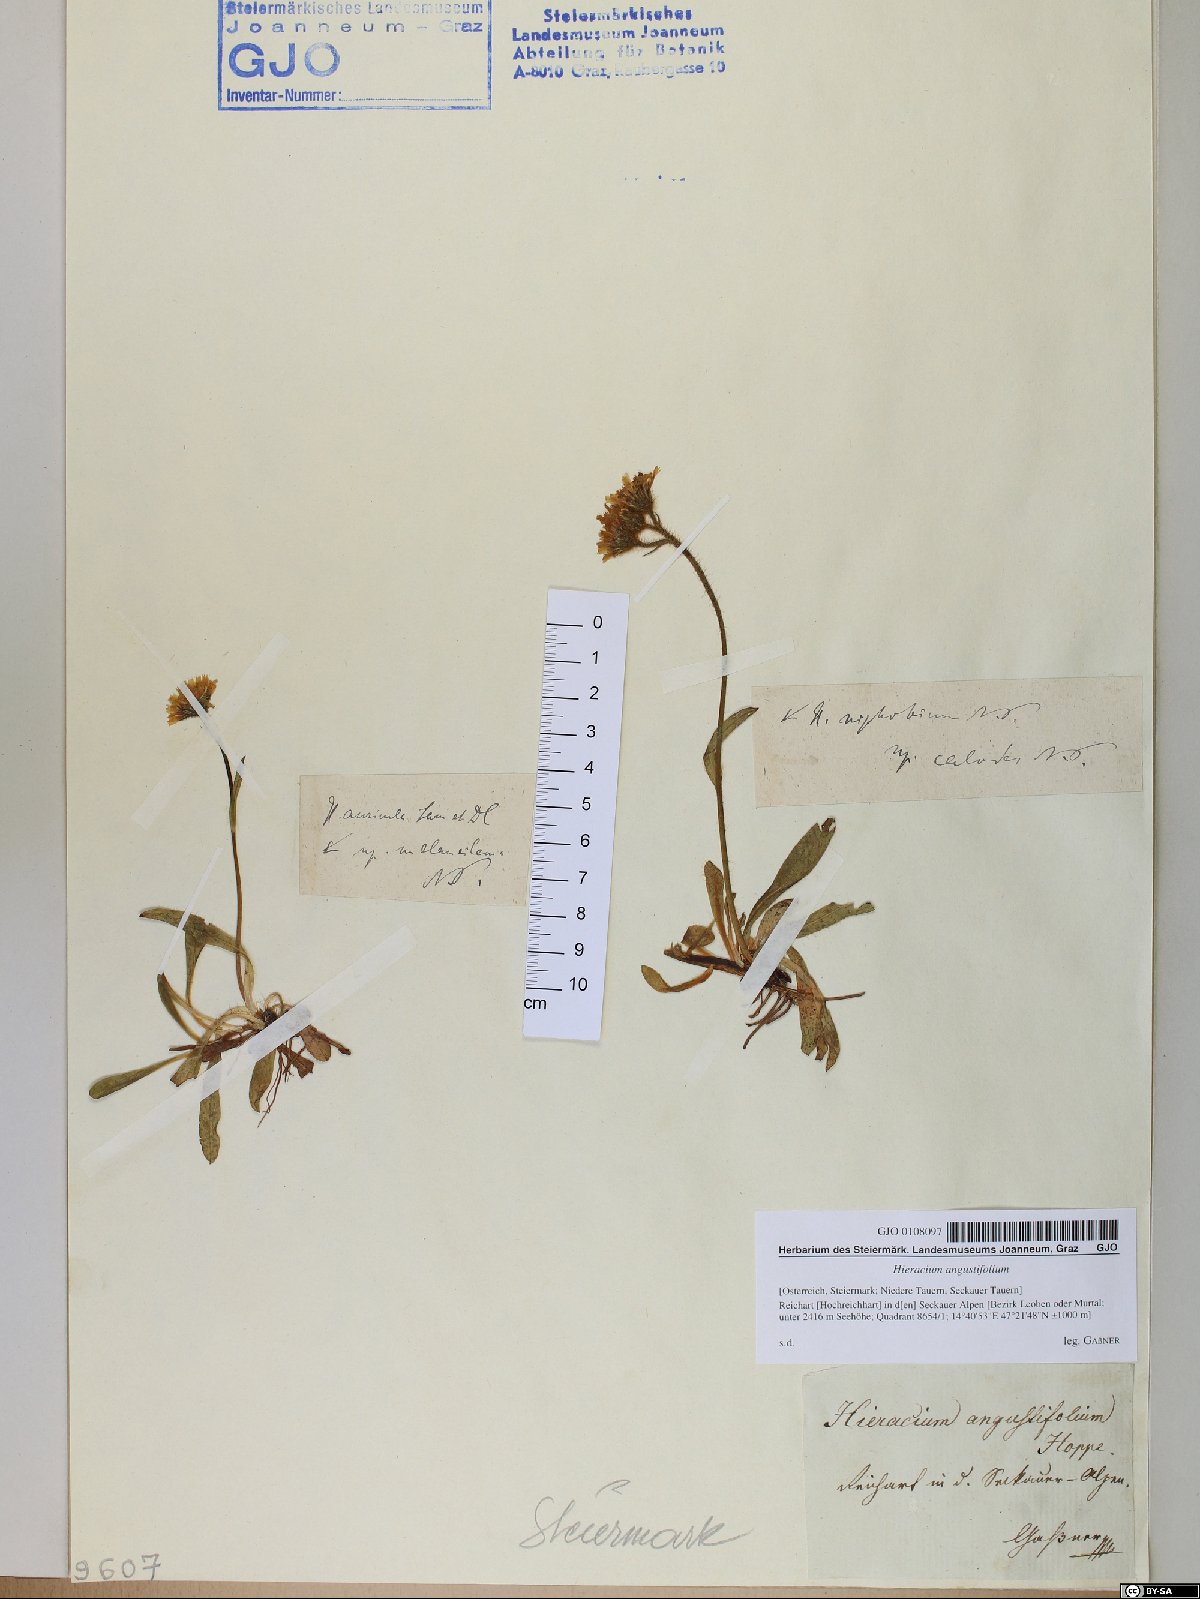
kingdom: Plantae
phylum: Tracheophyta
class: Magnoliopsida
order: Asterales
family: Asteraceae
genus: Pilosella
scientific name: Pilosella glacialis
